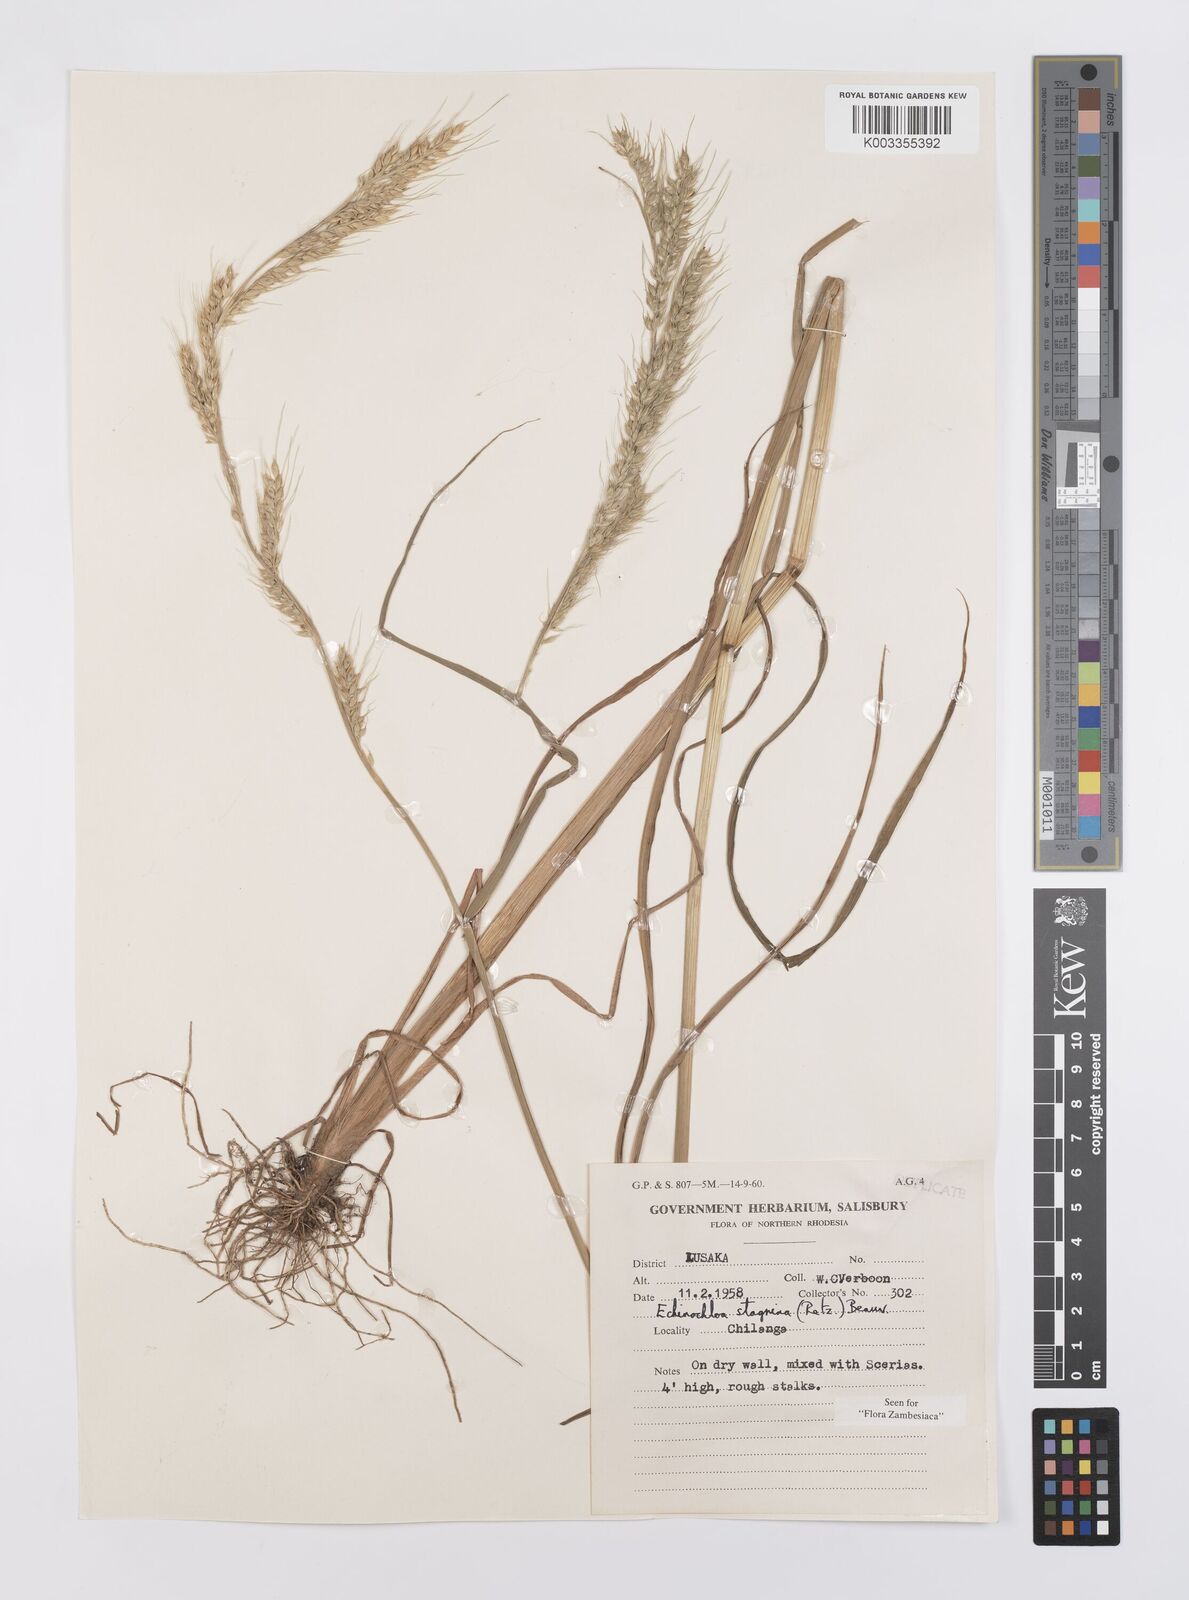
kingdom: Plantae
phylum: Tracheophyta
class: Liliopsida
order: Poales
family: Poaceae
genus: Echinochloa
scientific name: Echinochloa stagnina
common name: Burgu grass
